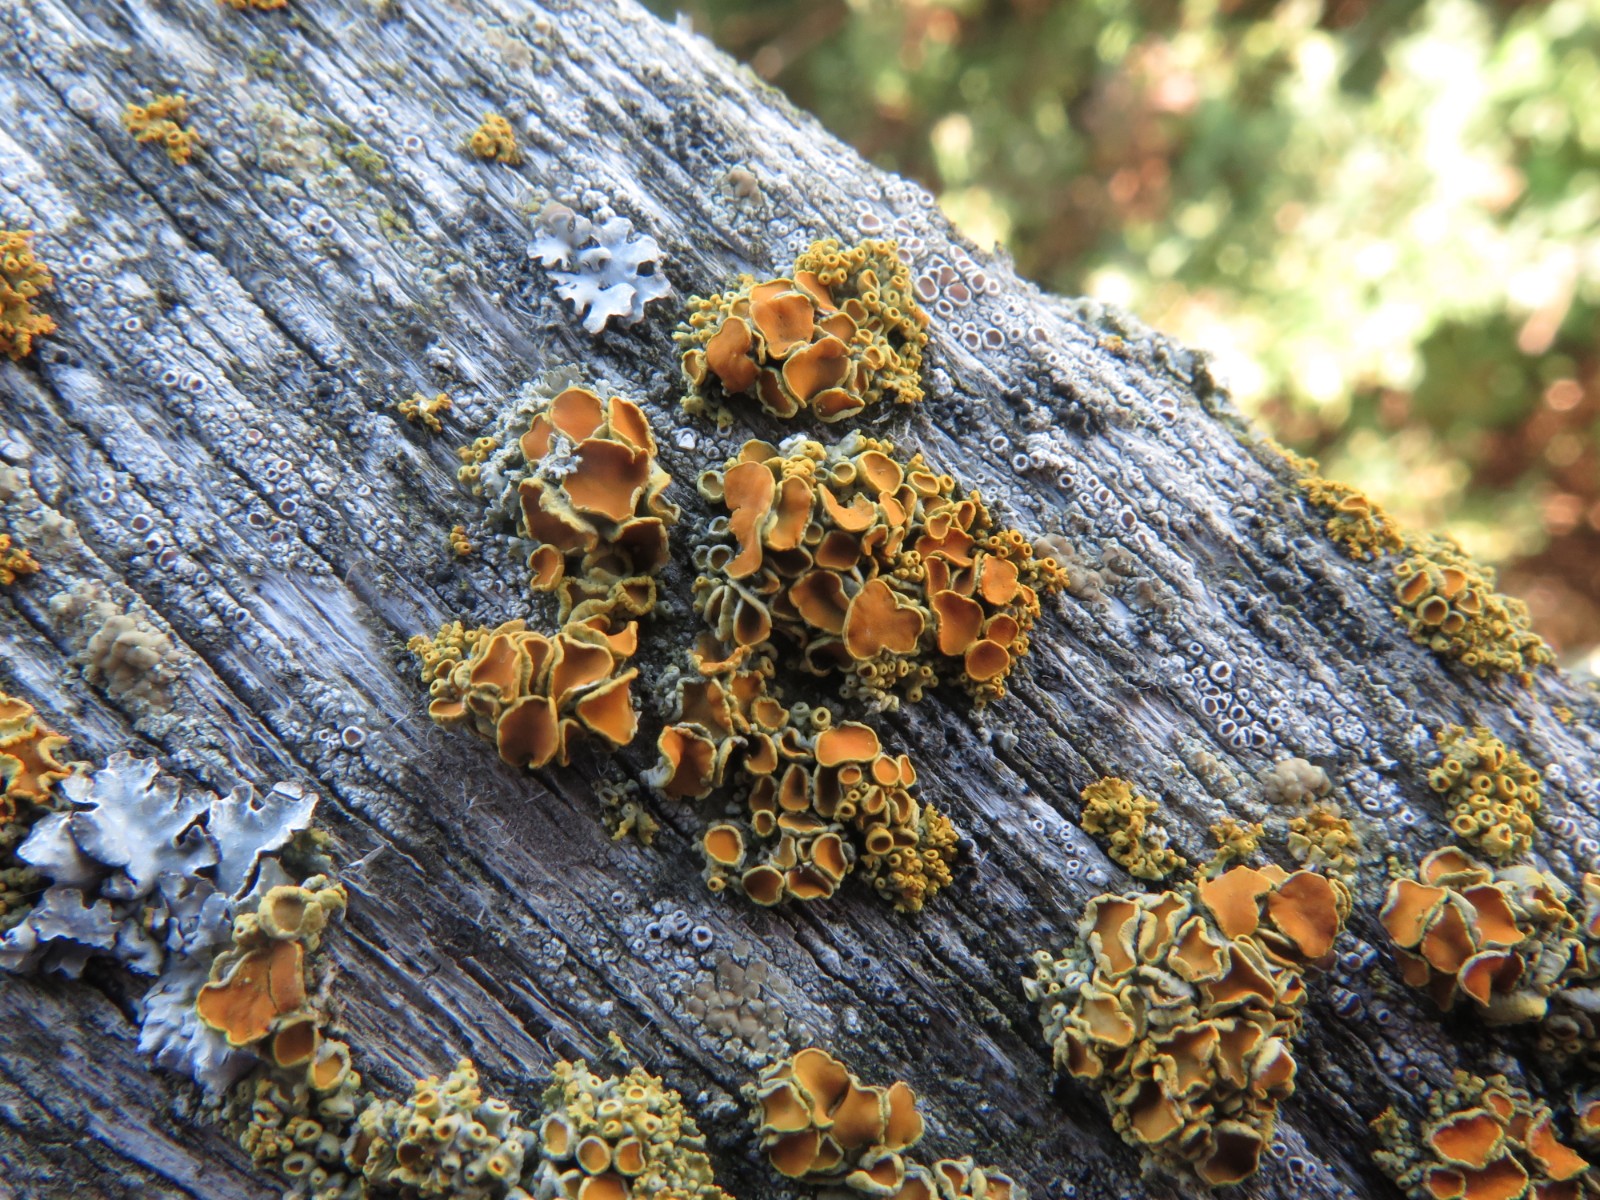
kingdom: Fungi
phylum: Ascomycota
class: Lecanoromycetes
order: Teloschistales
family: Teloschistaceae
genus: Polycauliona
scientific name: Polycauliona polycarpa
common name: mangefrugtet orangelav
